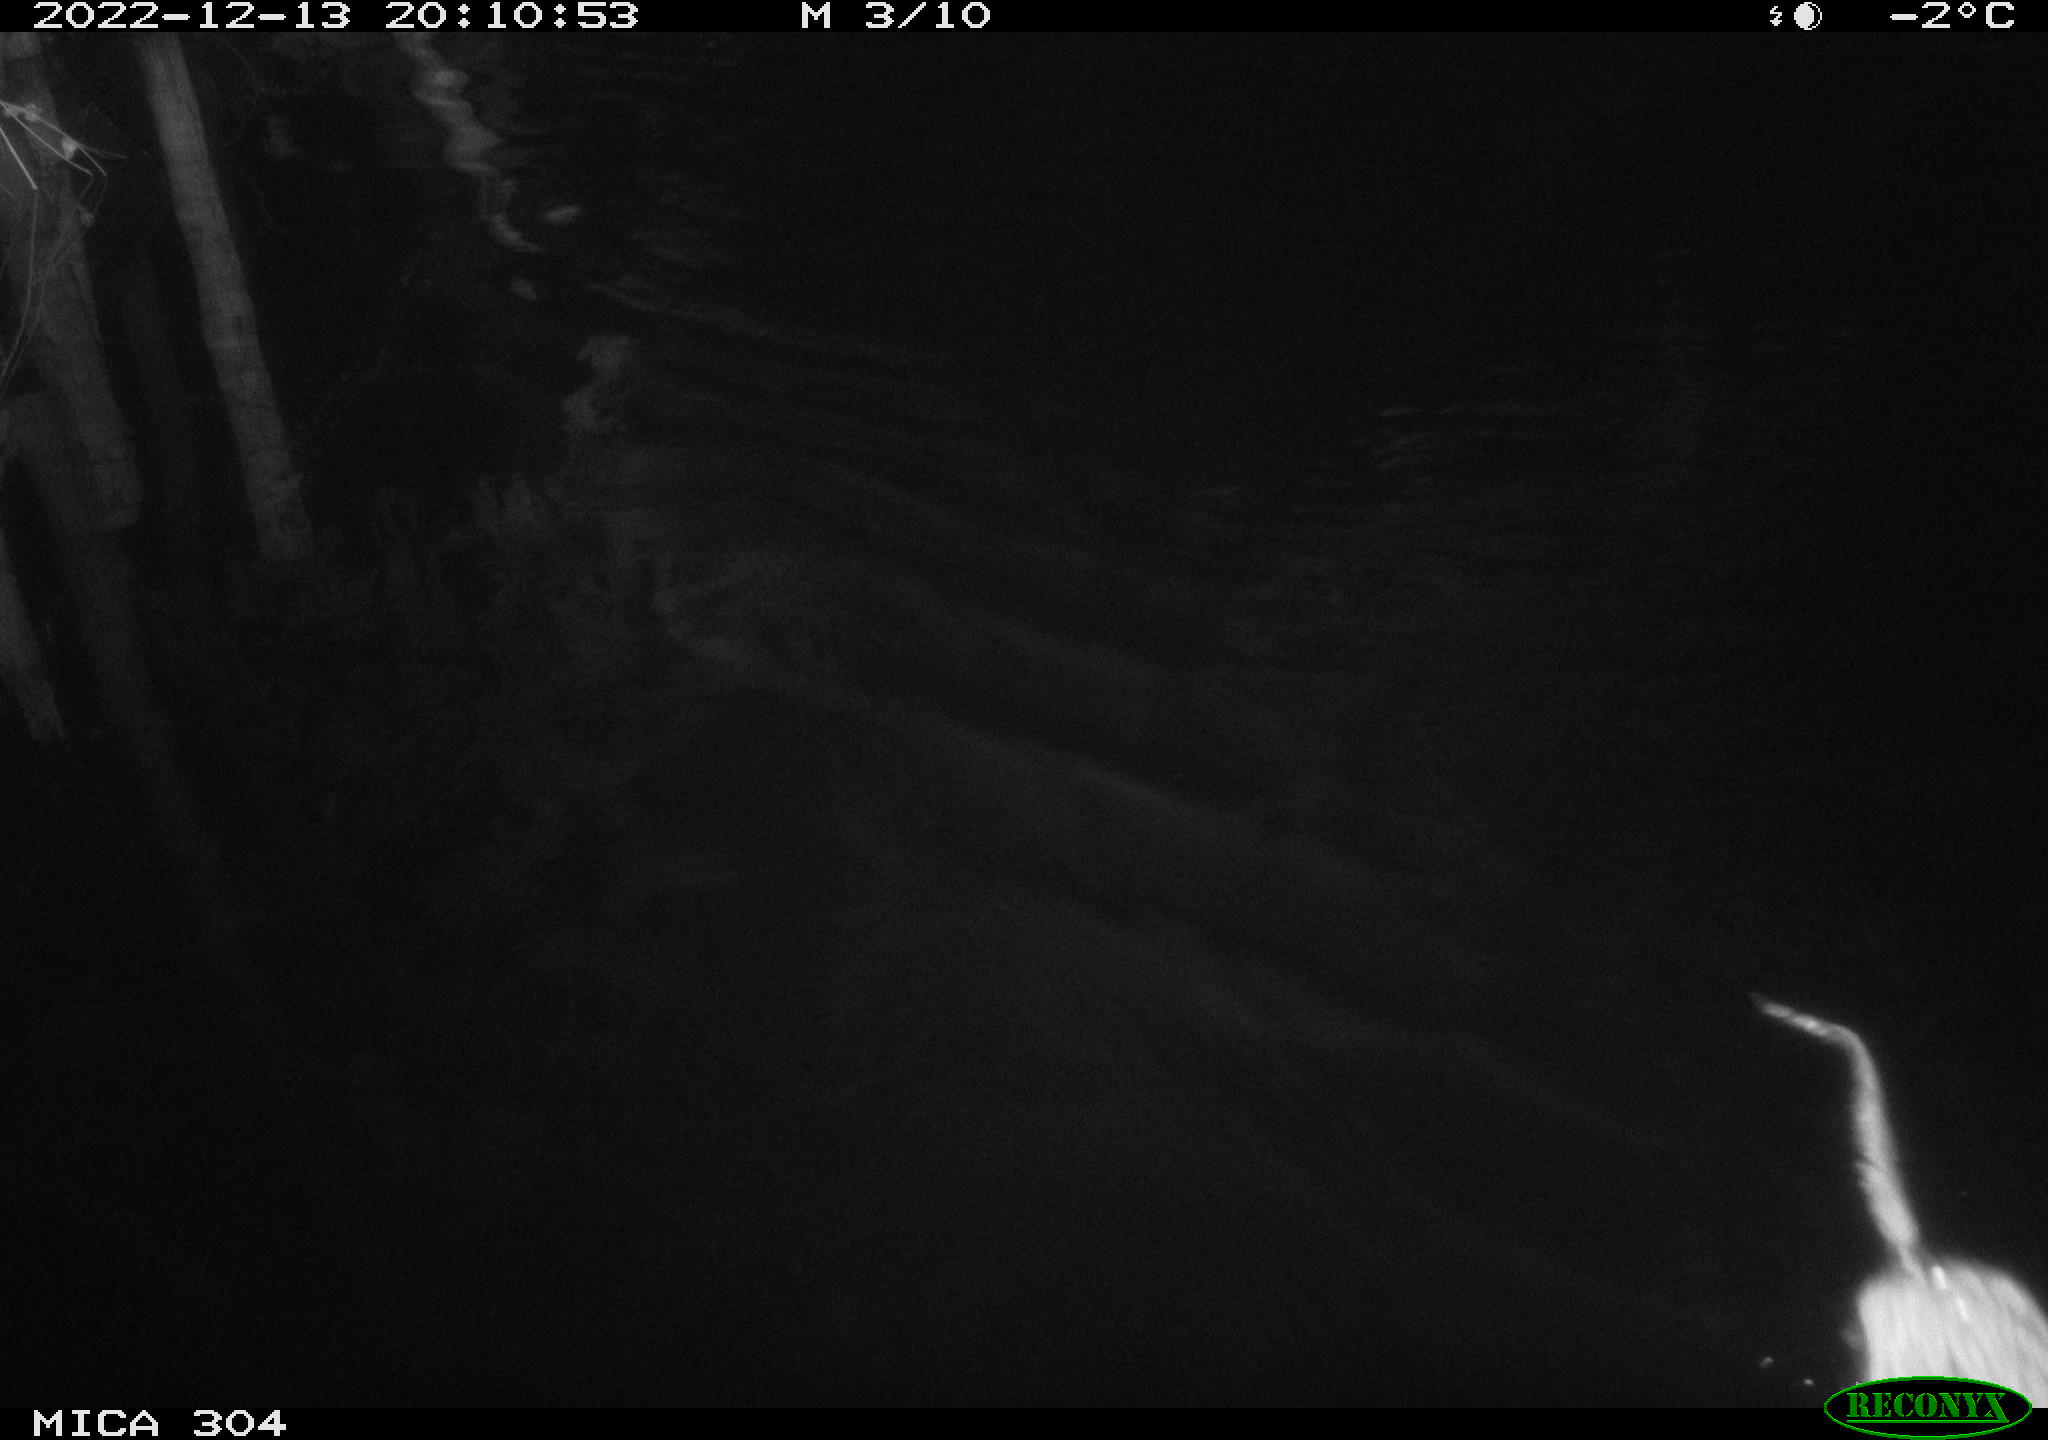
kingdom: Animalia
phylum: Chordata
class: Mammalia
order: Rodentia
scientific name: Rodentia
